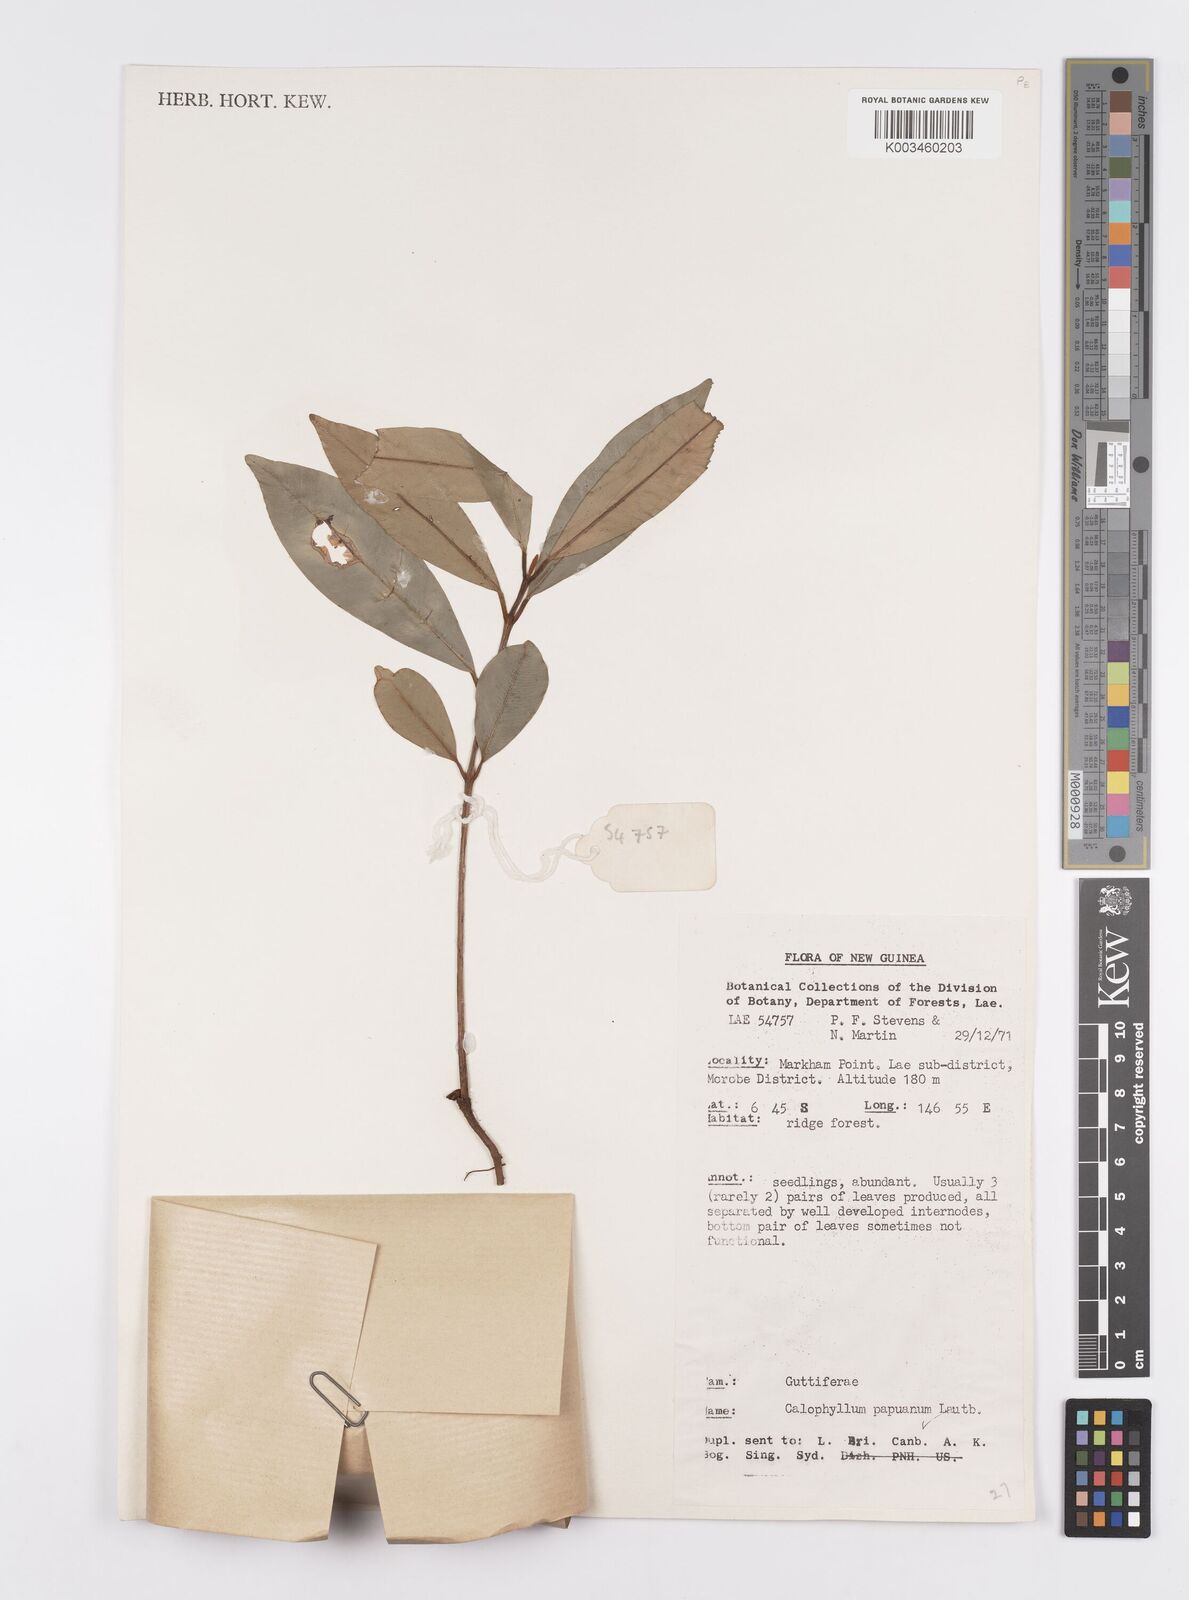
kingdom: Plantae
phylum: Tracheophyta
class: Magnoliopsida
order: Malpighiales
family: Calophyllaceae
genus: Calophyllum
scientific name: Calophyllum papuanum
